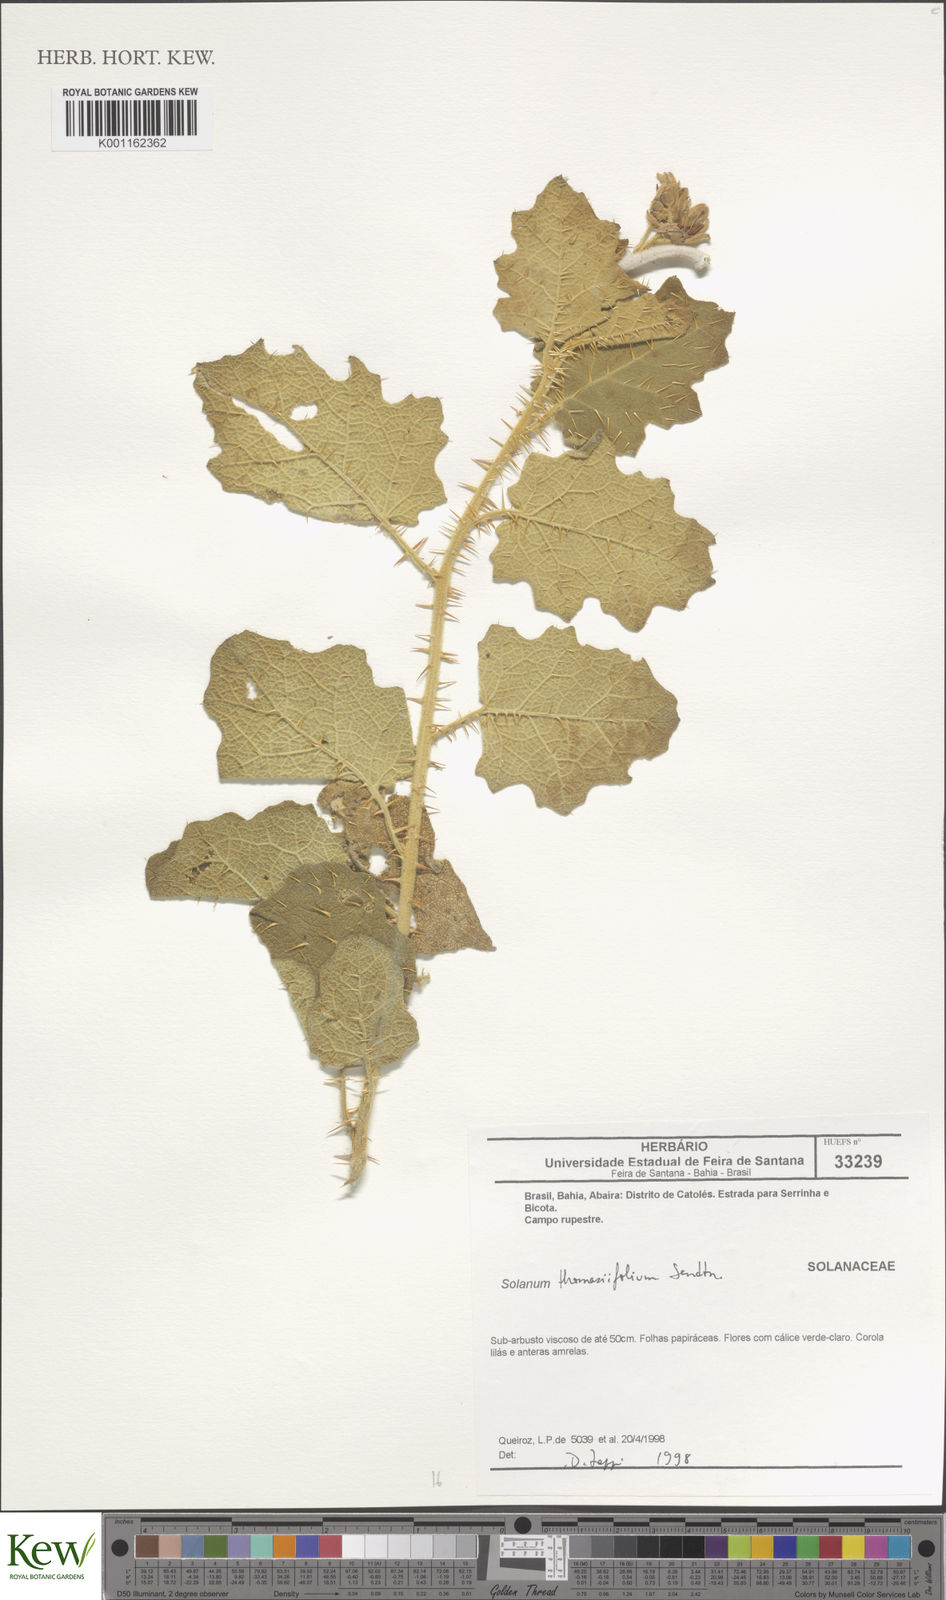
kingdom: Plantae
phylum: Tracheophyta
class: Magnoliopsida
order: Solanales
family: Solanaceae
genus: Solanum
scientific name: Solanum thomasiifolium
